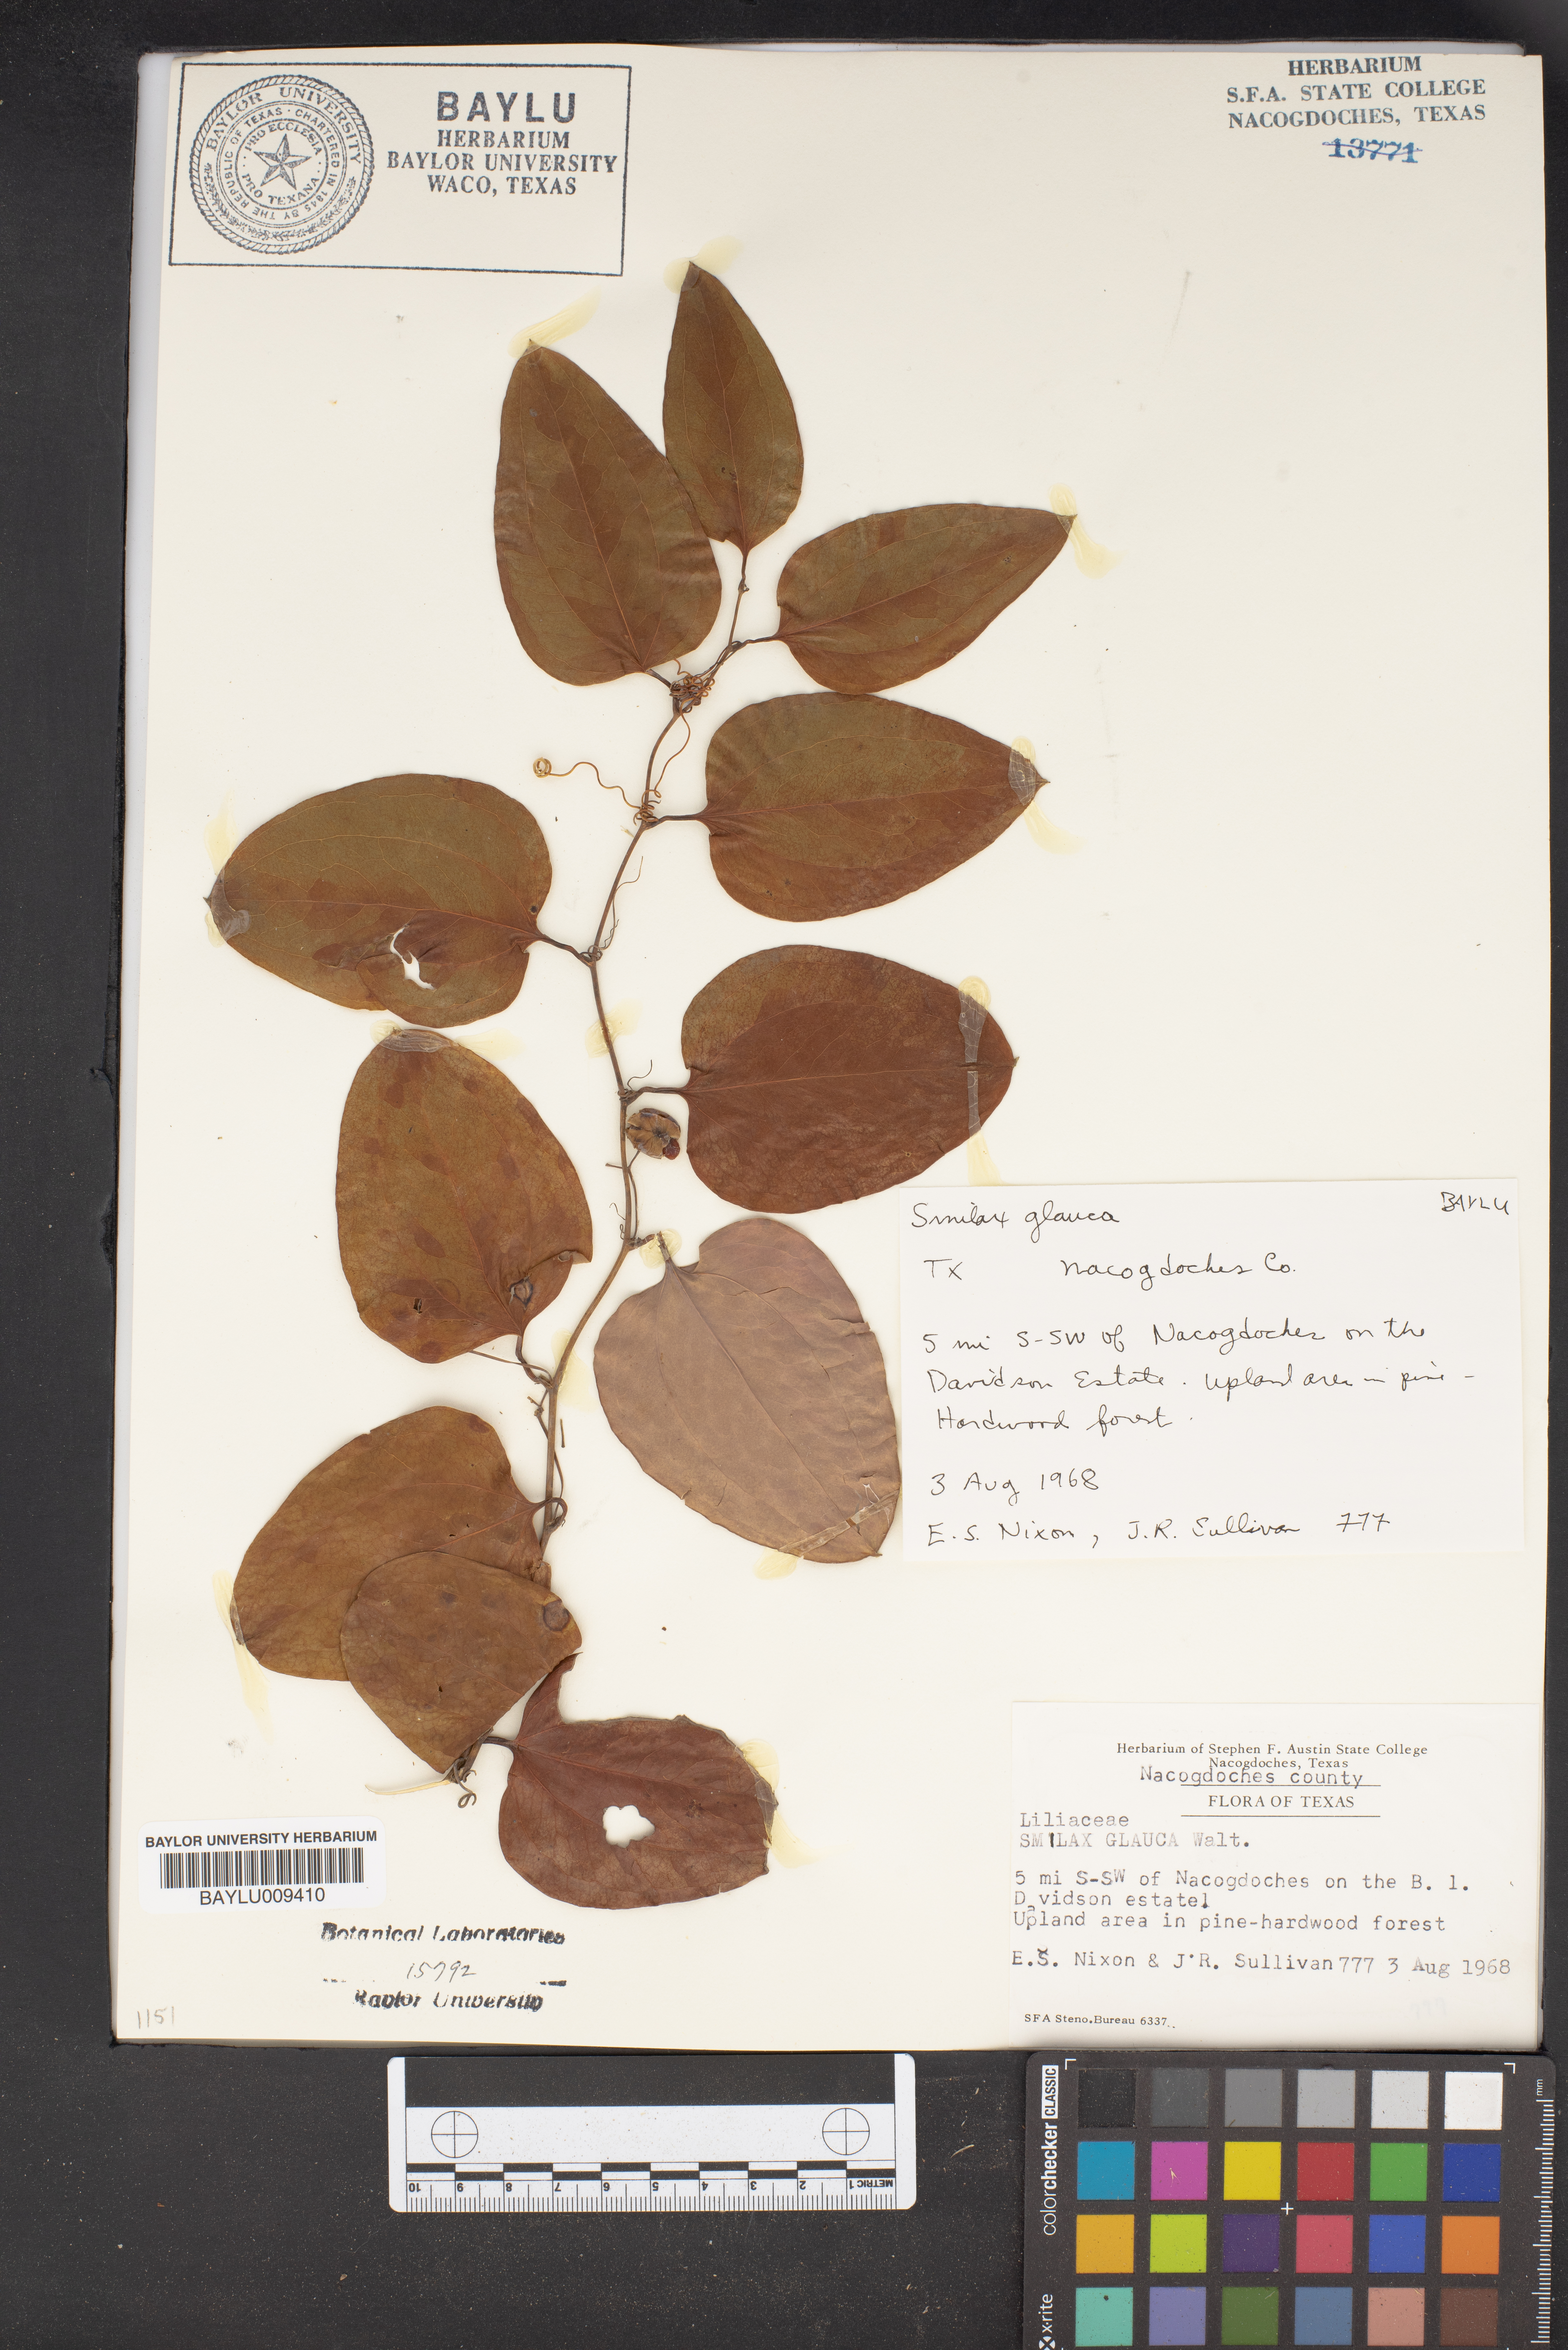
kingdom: Plantae
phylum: Tracheophyta
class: Liliopsida
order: Liliales
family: Smilacaceae
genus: Smilax
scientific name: Smilax glauca
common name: Cat greenbrier
